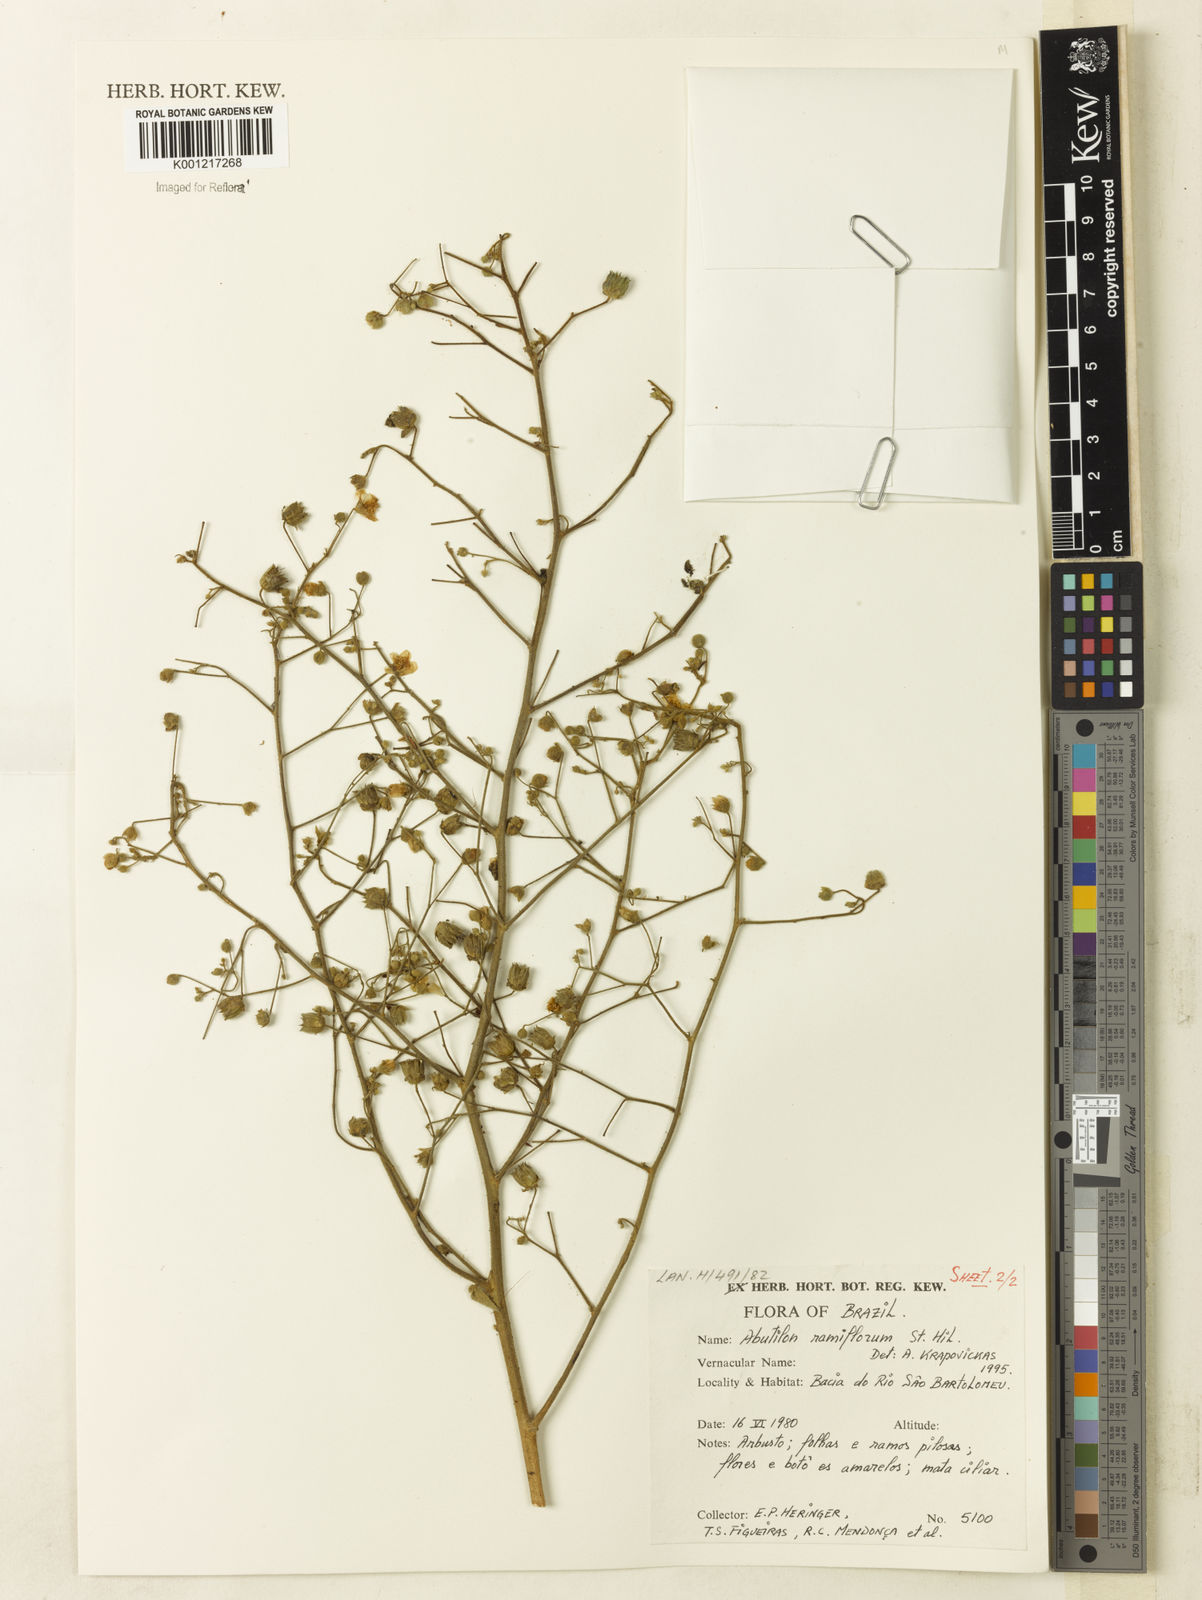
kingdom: Plantae
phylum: Tracheophyta
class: Magnoliopsida
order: Malvales
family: Malvaceae
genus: Abutilon
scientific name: Abutilon ramiflorum
